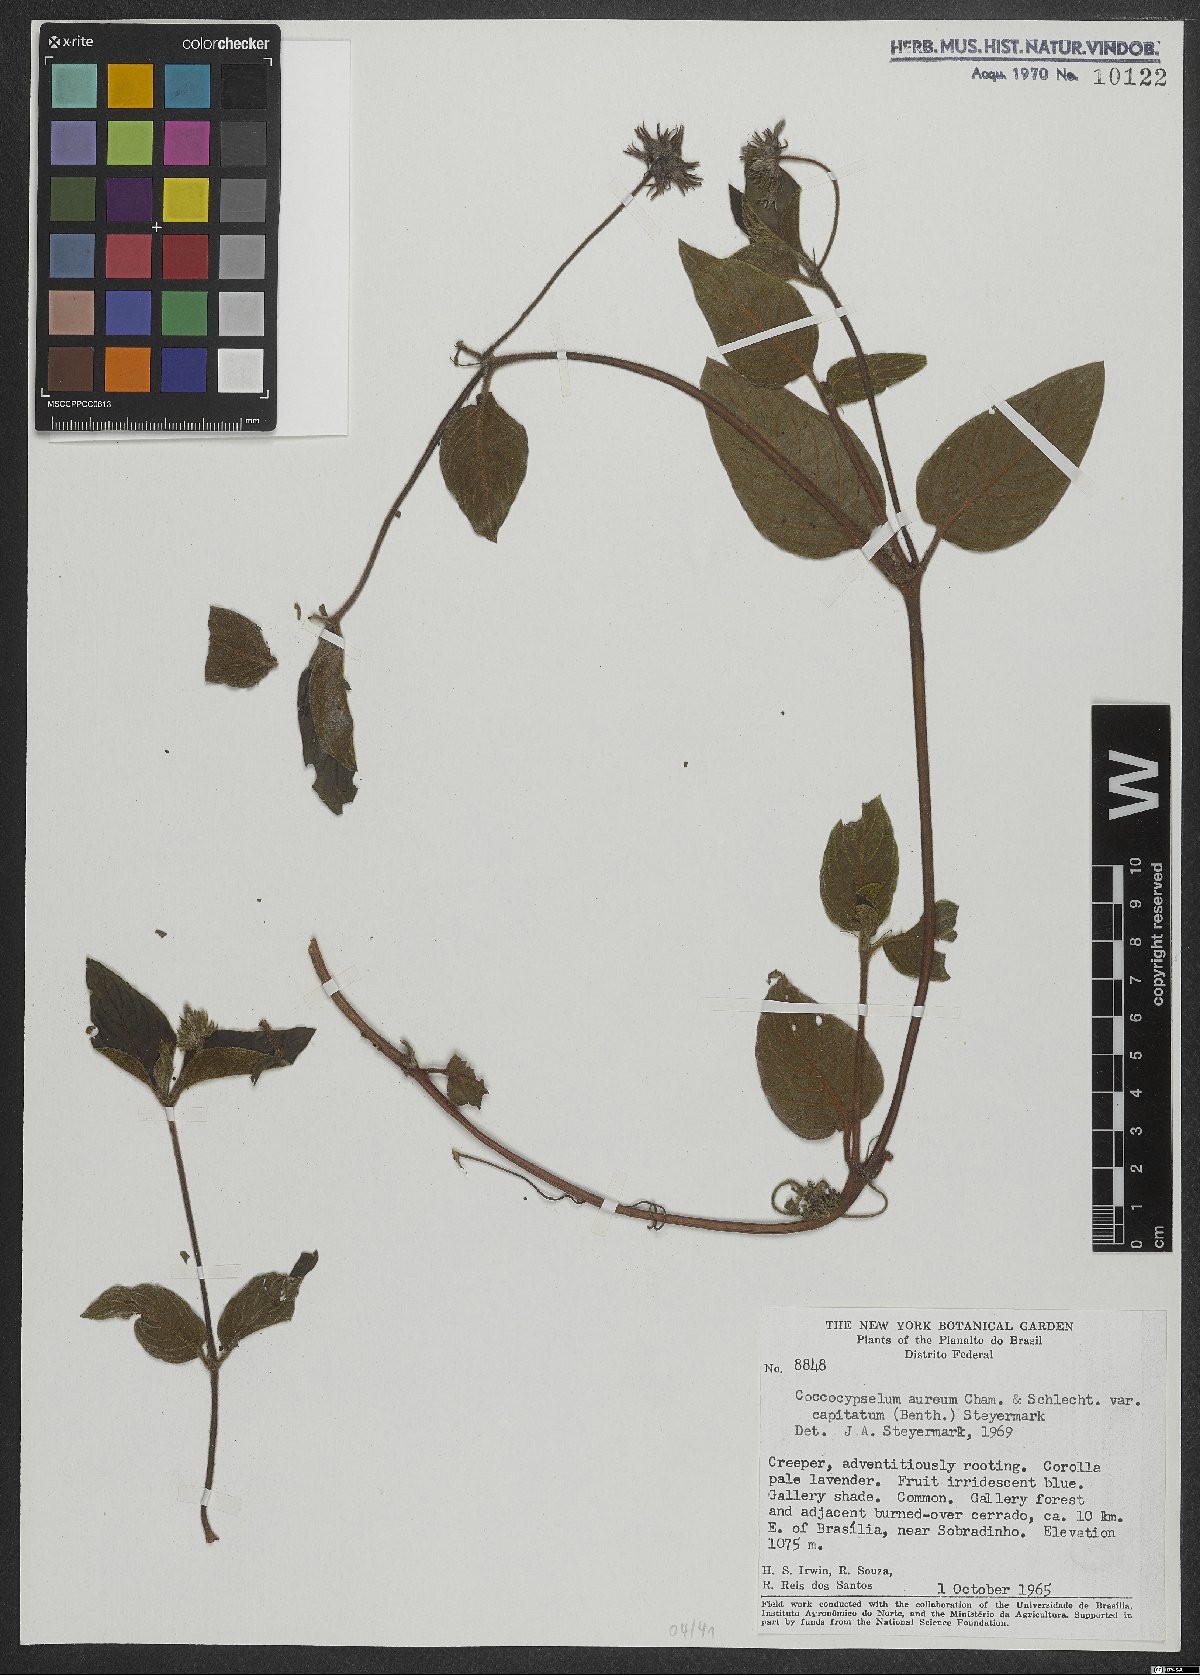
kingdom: Plantae
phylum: Tracheophyta
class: Magnoliopsida
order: Gentianales
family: Rubiaceae
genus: Coccocypselum
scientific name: Coccocypselum aureum
